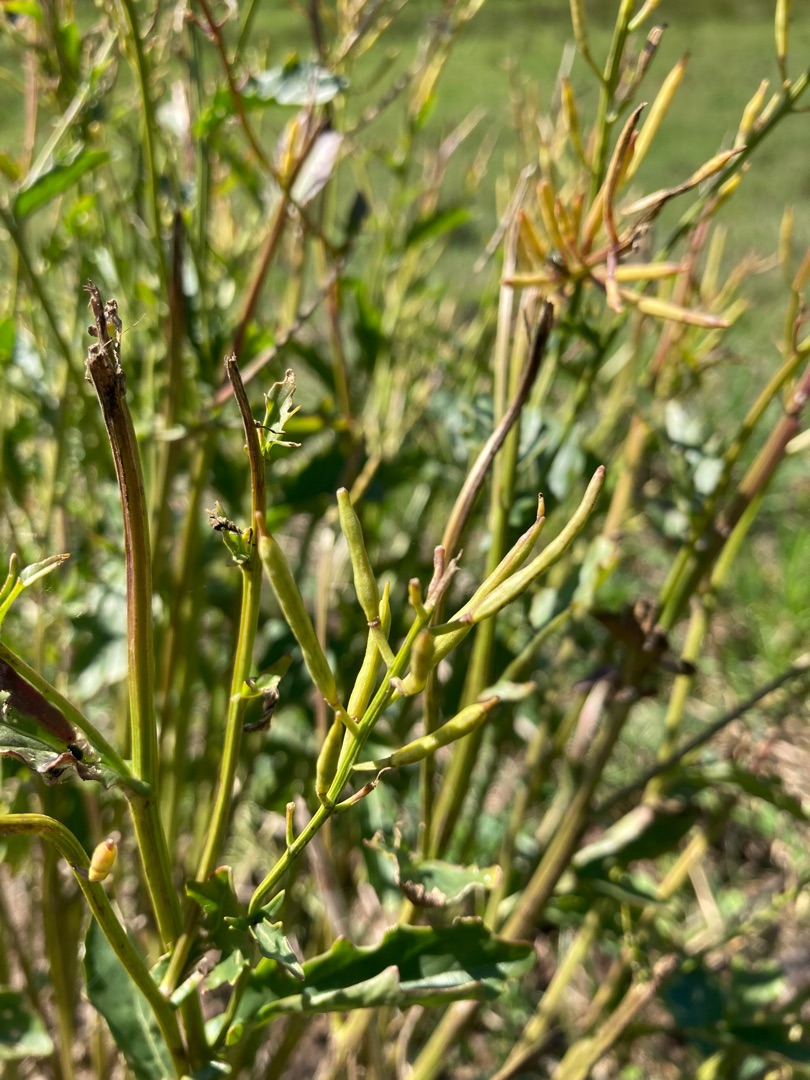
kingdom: Plantae
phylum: Tracheophyta
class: Magnoliopsida
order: Brassicales
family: Brassicaceae
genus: Barbarea
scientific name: Barbarea vulgaris
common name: Almindelig vinterkarse
